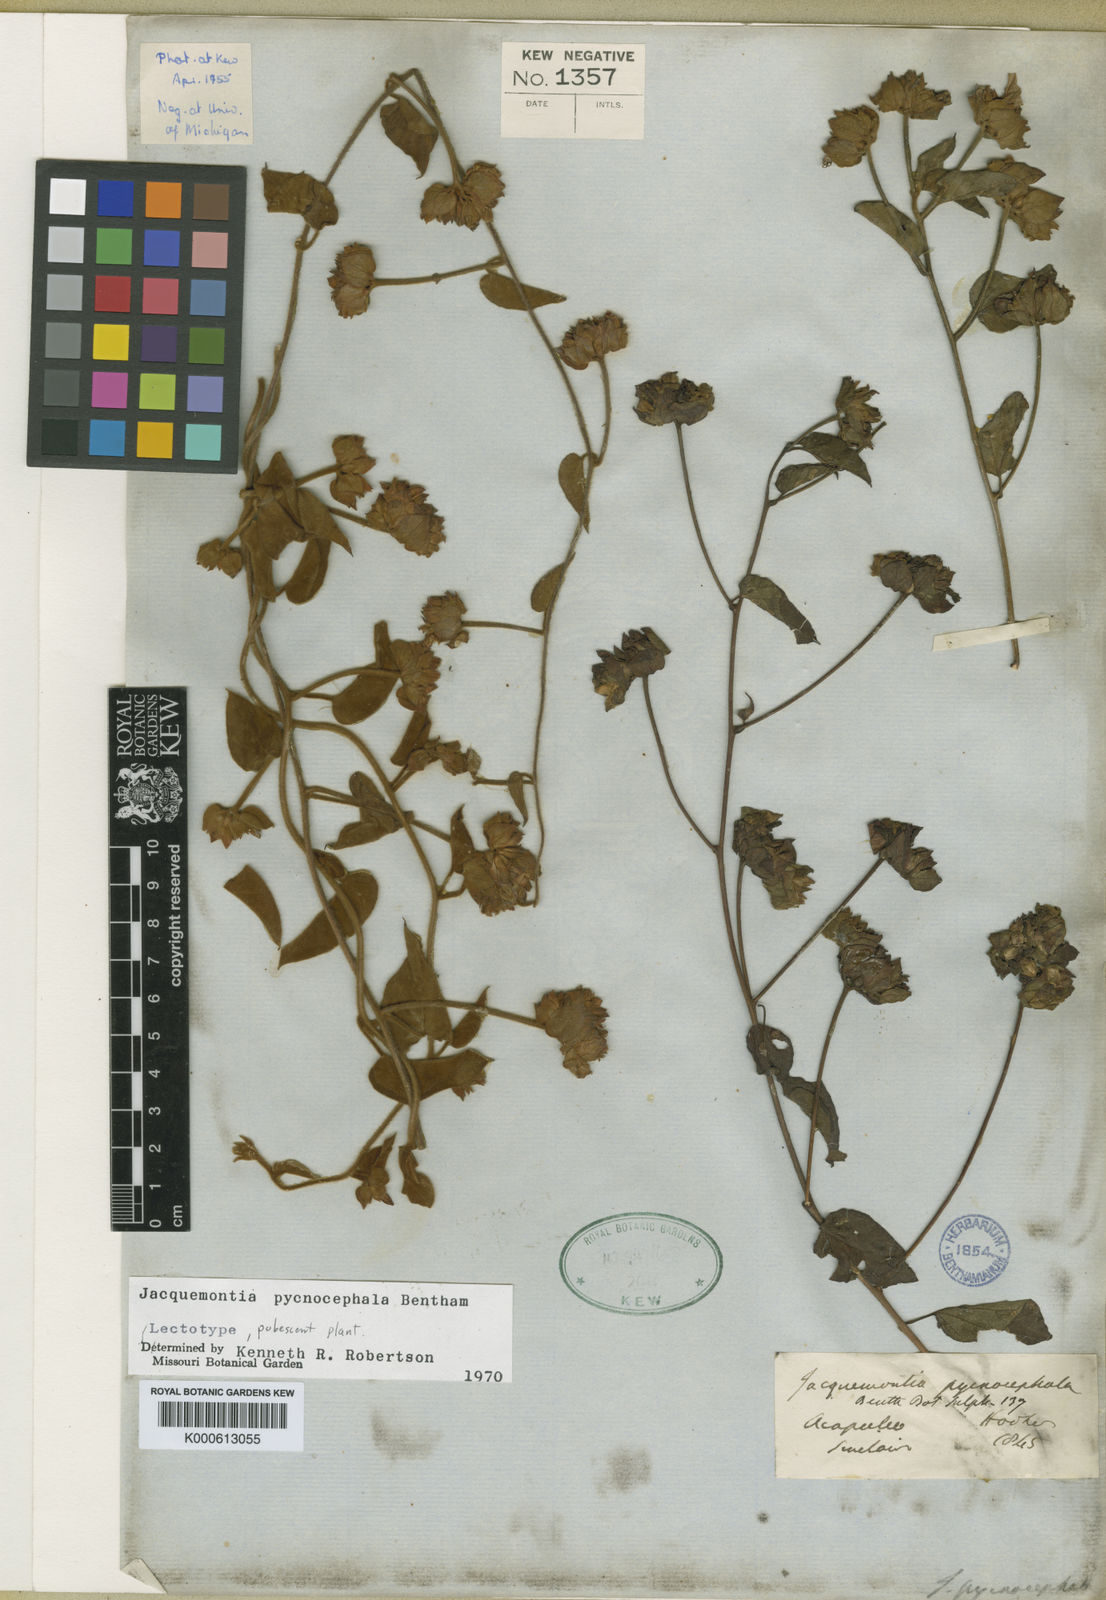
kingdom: Plantae
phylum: Tracheophyta
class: Magnoliopsida
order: Solanales
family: Convolvulaceae
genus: Jacquemontia
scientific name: Jacquemontia pycnocephala
